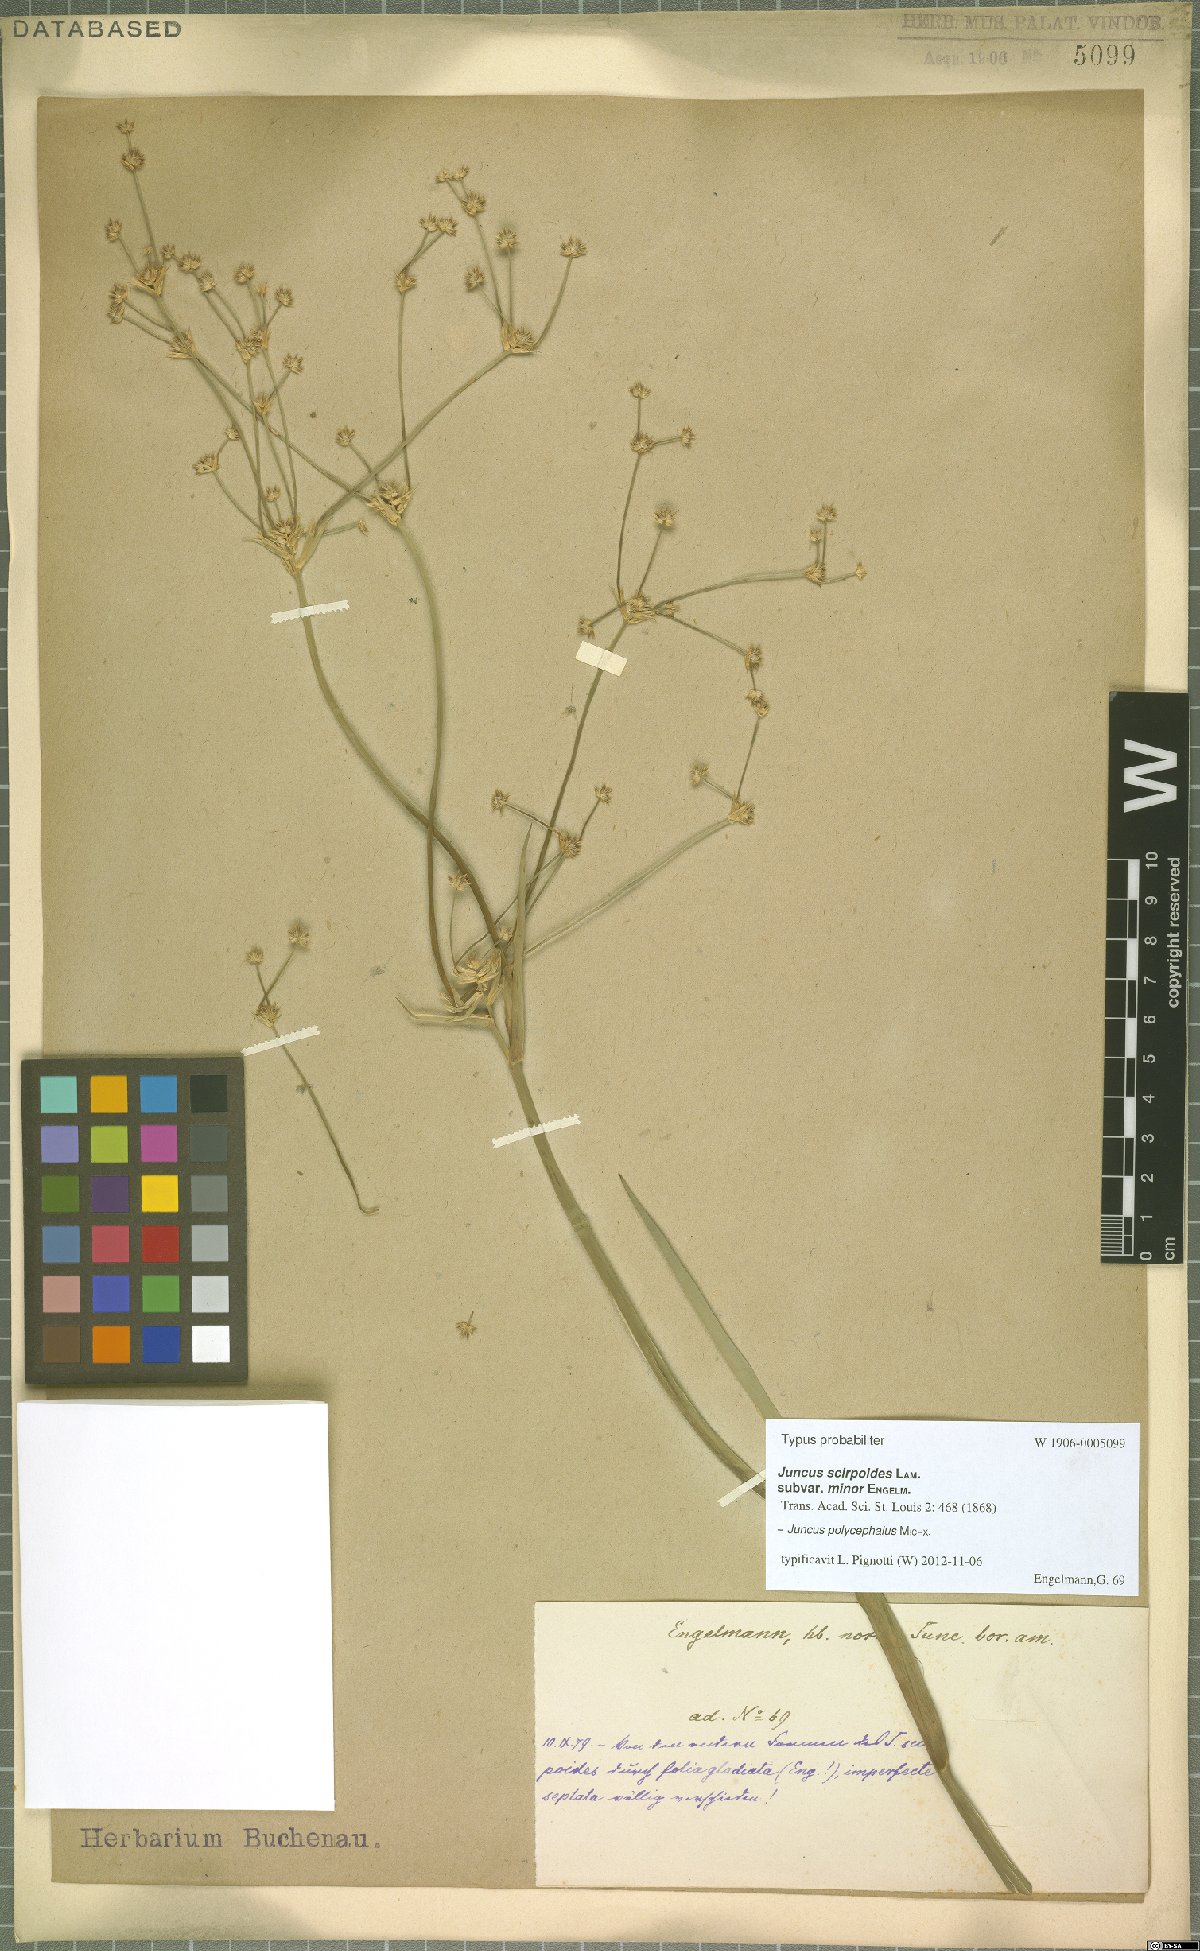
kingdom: Plantae
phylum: Tracheophyta
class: Liliopsida
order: Poales
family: Juncaceae
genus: Juncus
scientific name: Juncus polycephalus
